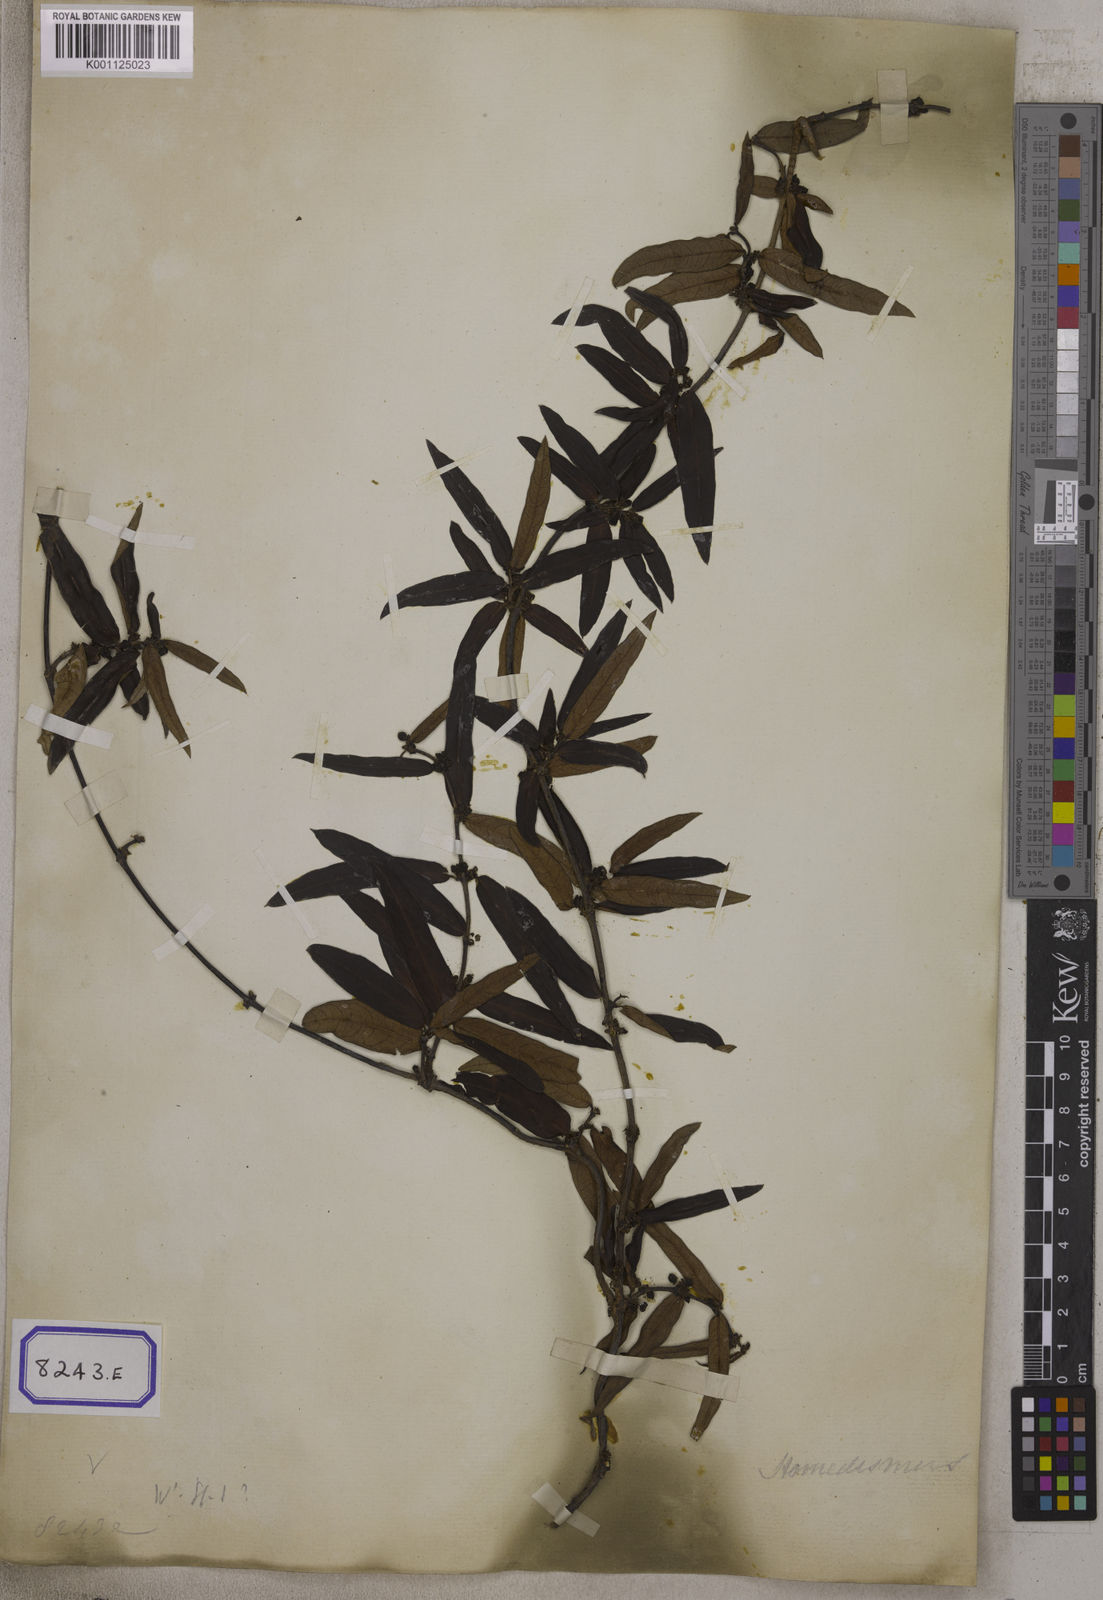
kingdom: Plantae
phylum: Tracheophyta
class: Magnoliopsida
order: Gentianales
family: Apocynaceae
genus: Hemidesmus
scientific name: Hemidesmus indicus
